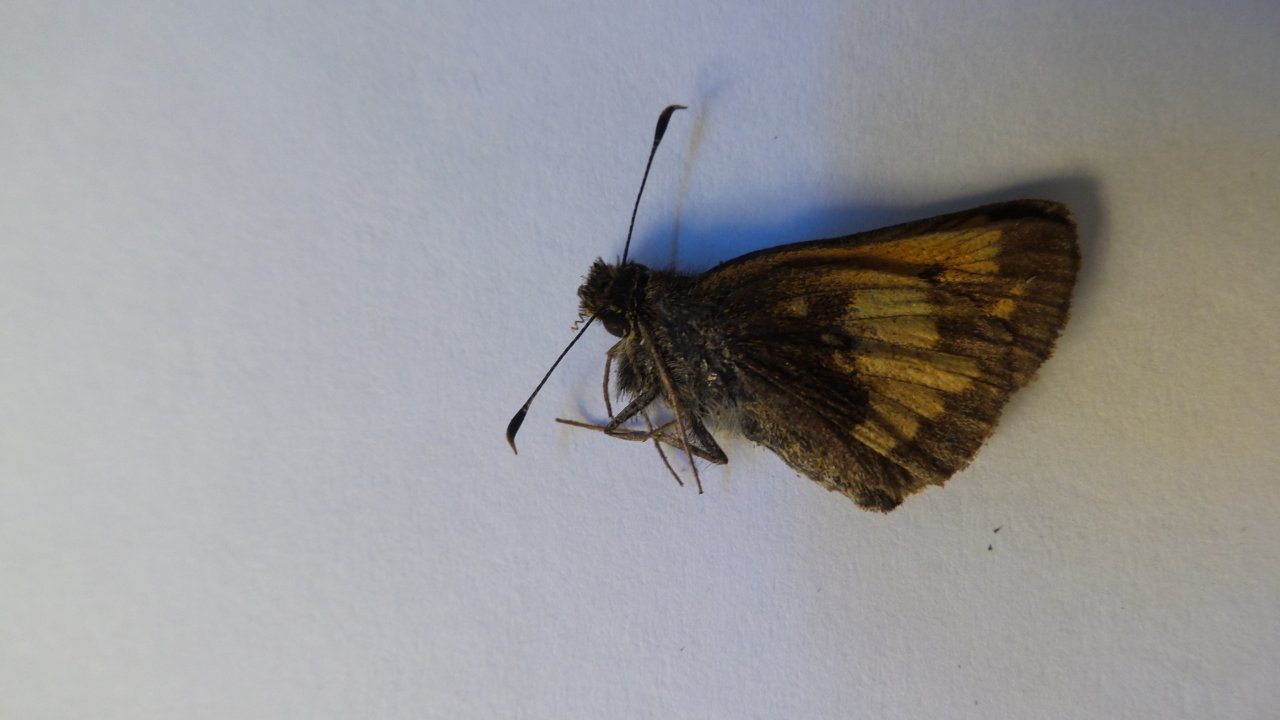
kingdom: Animalia
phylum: Arthropoda
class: Insecta
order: Lepidoptera
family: Hesperiidae
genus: Lon
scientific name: Lon hobomok
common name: Hobomok Skipper
